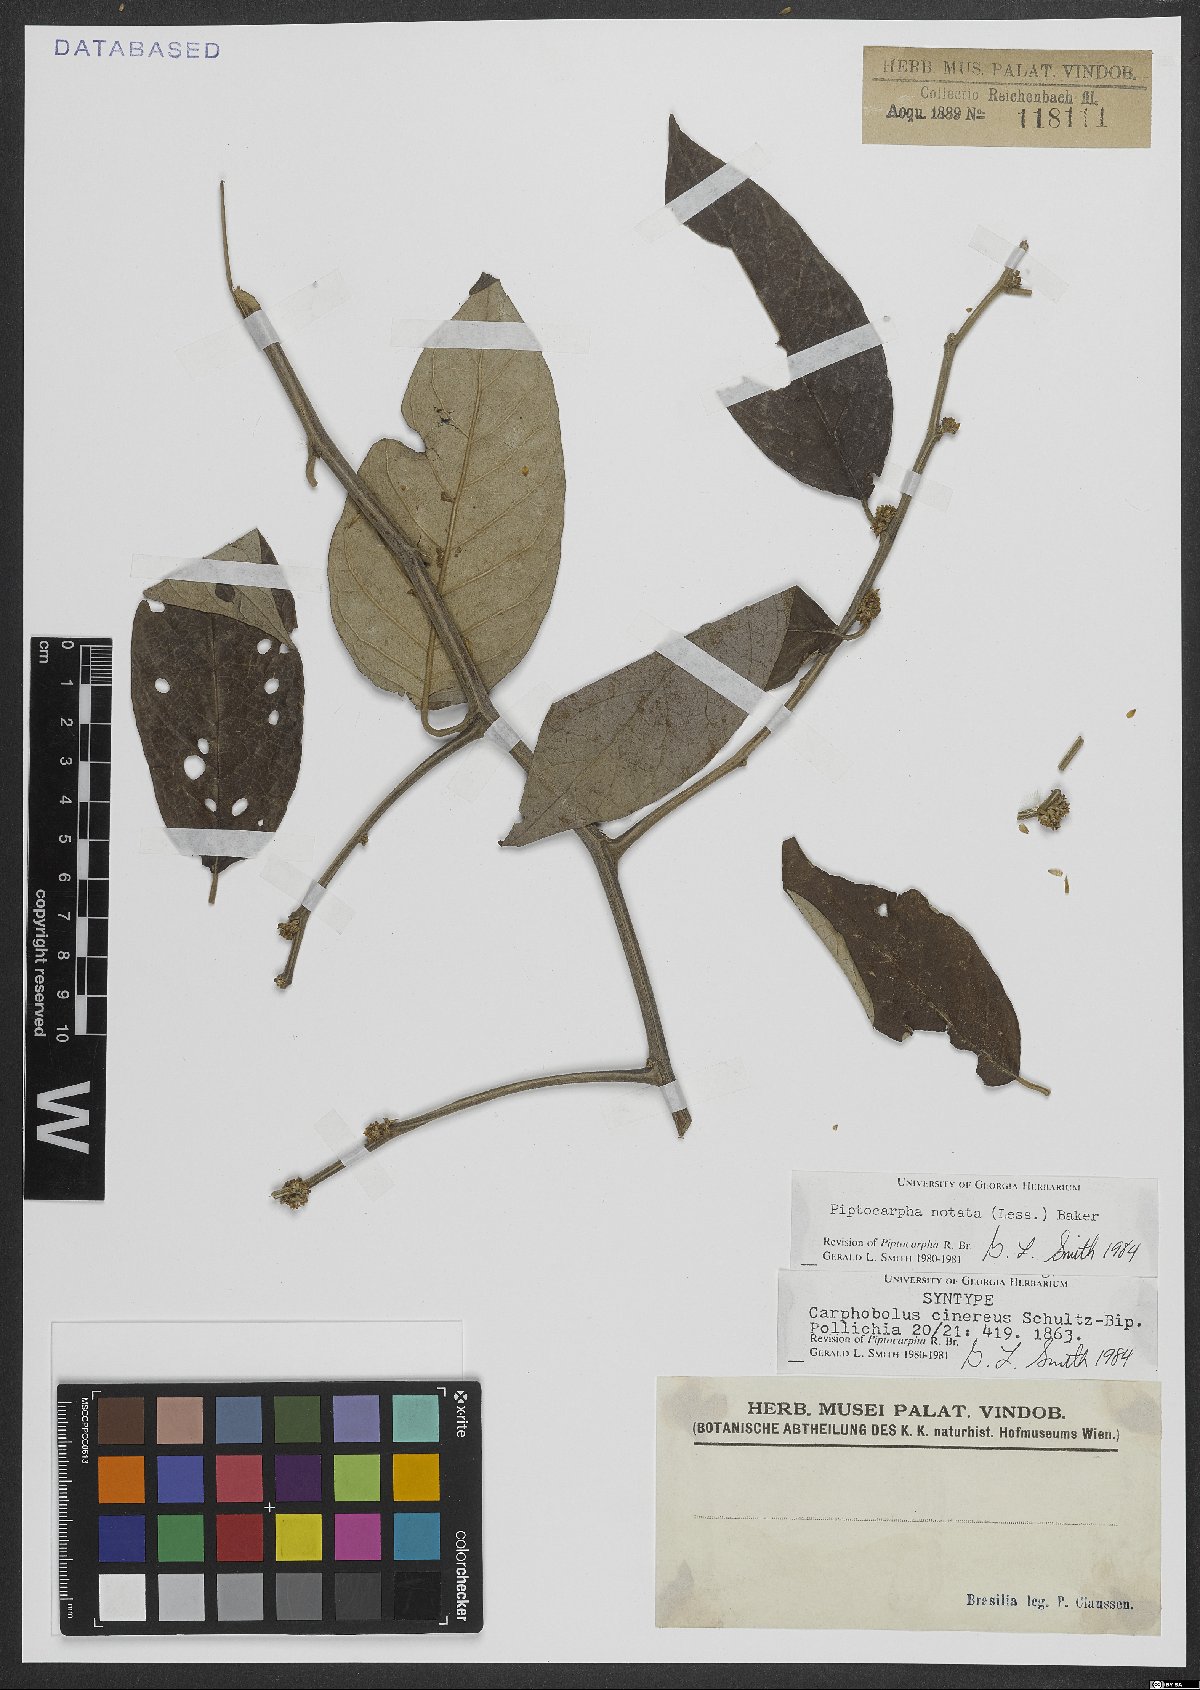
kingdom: Plantae
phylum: Tracheophyta
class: Magnoliopsida
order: Asterales
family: Asteraceae
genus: Piptocarpha
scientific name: Piptocarpha notata
